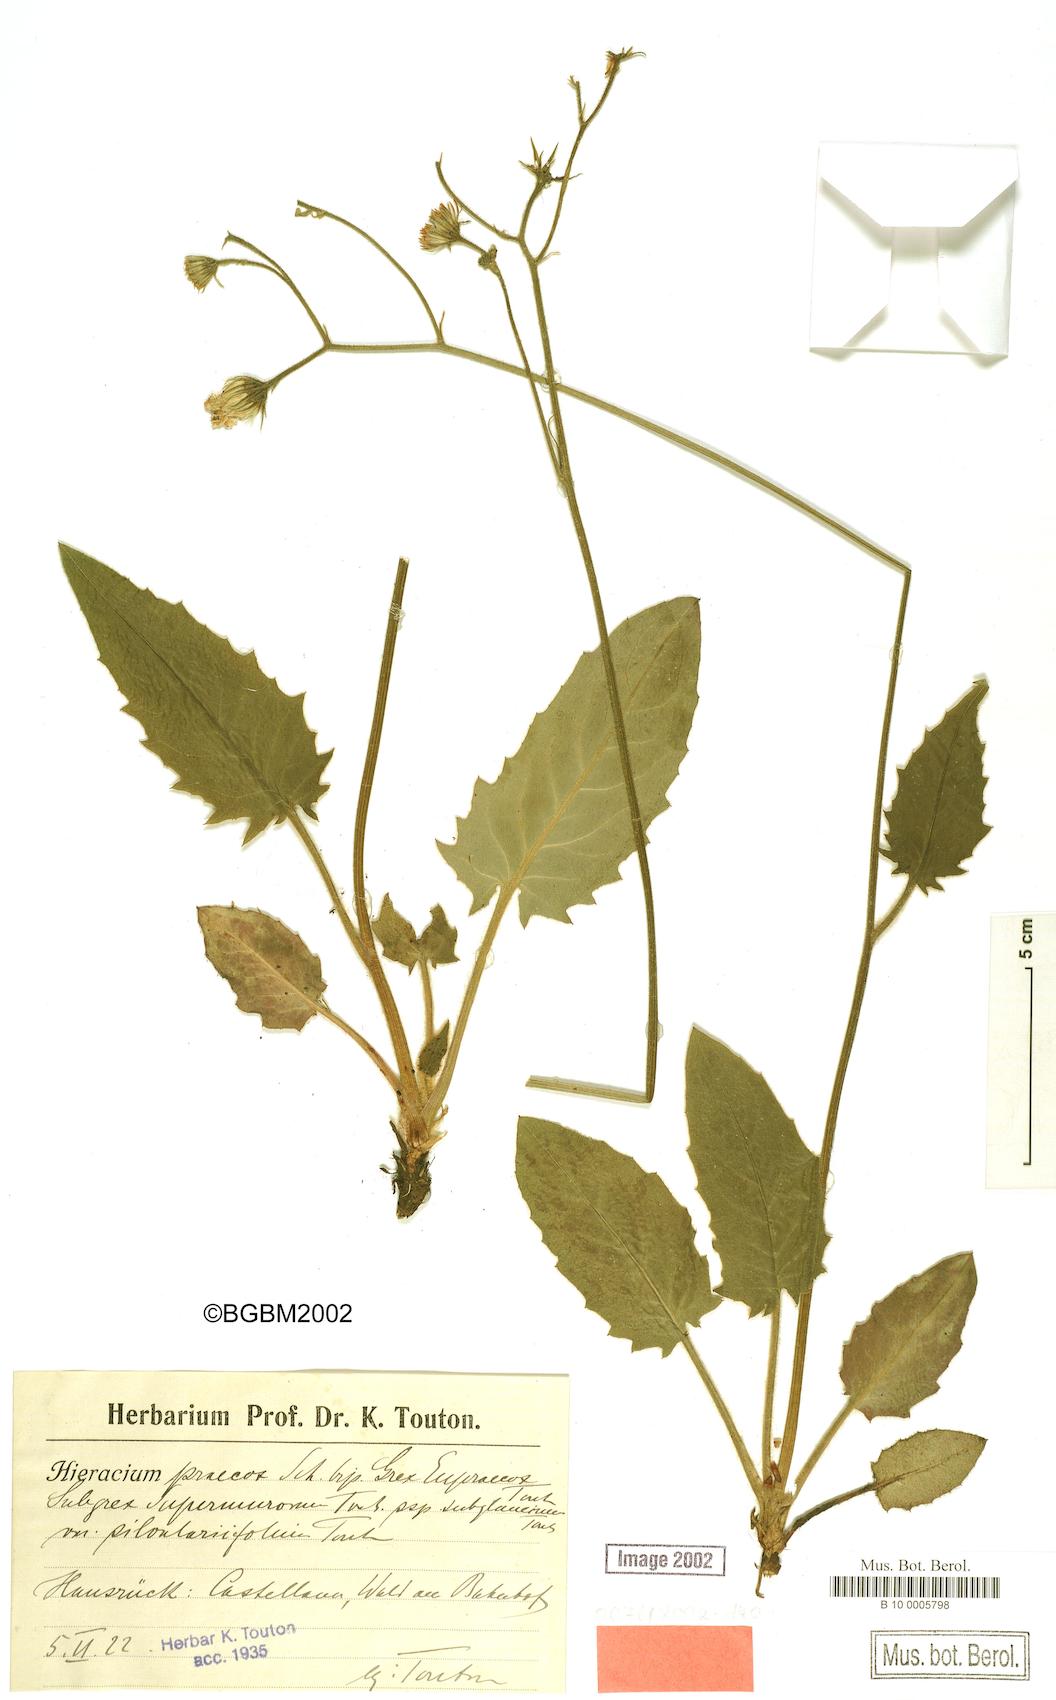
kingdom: Plantae
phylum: Tracheophyta
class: Magnoliopsida
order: Asterales
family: Asteraceae
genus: Hieracium
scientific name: Hieracium praecox
